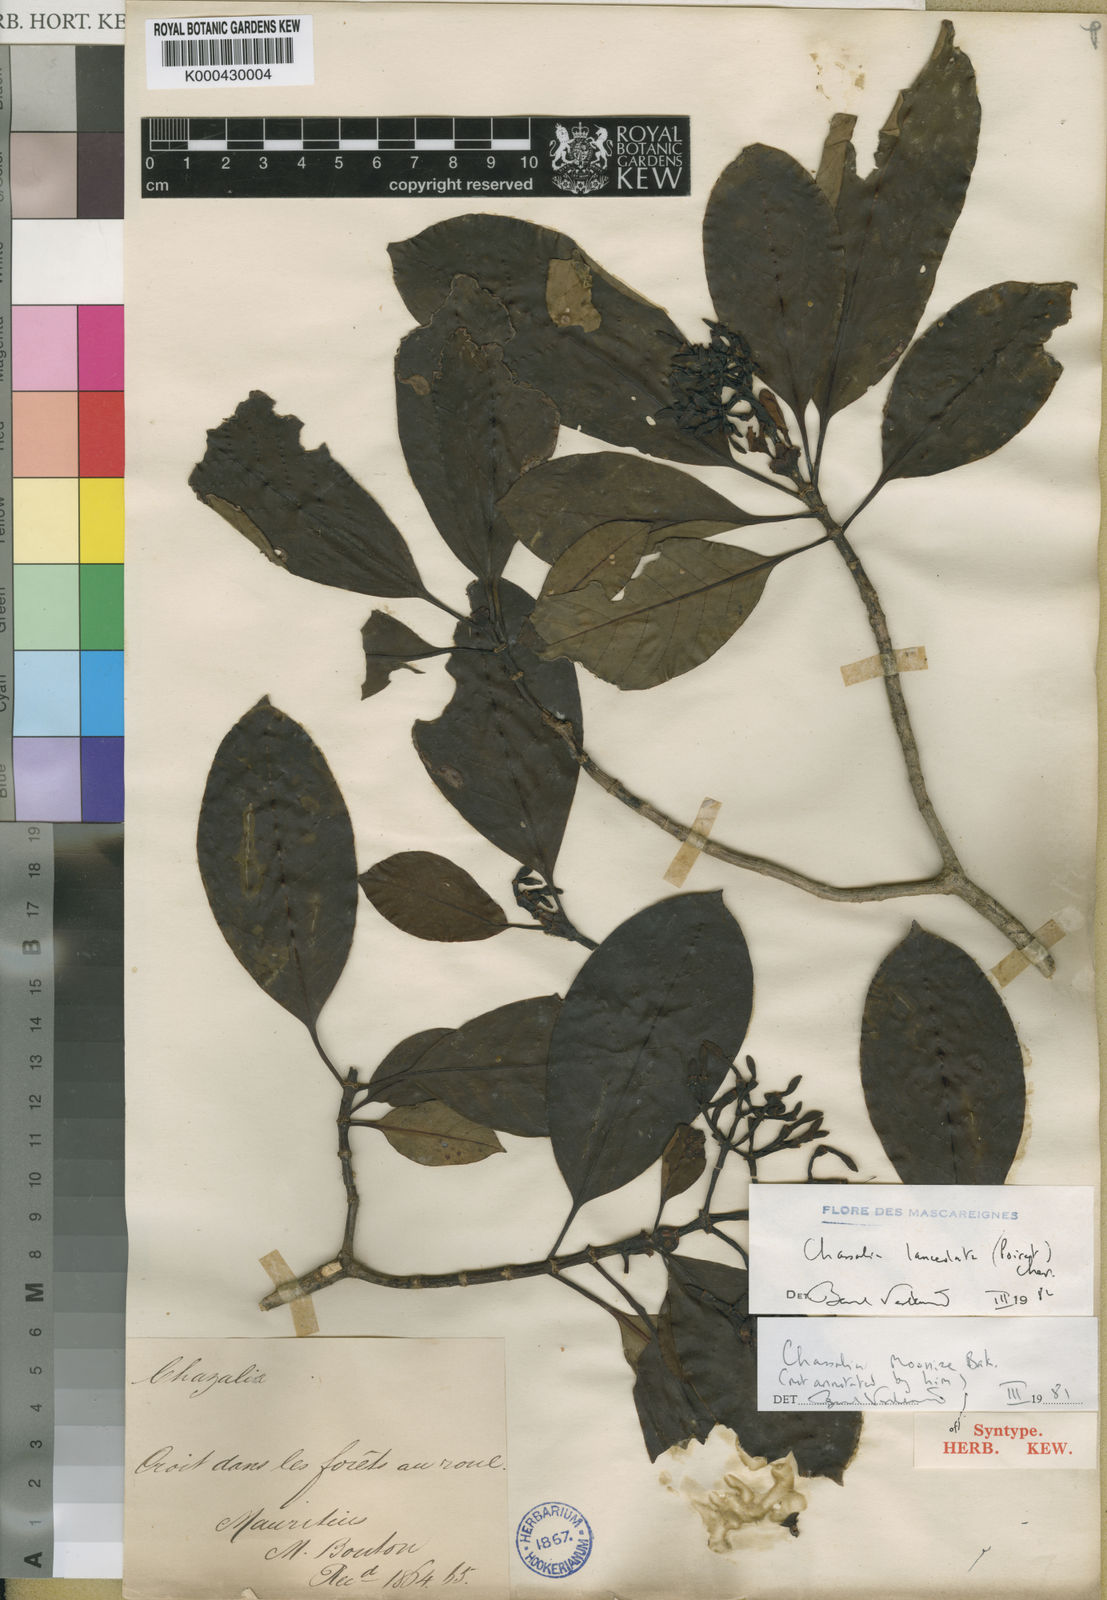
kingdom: Plantae
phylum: Tracheophyta
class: Magnoliopsida
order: Gentianales
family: Rubiaceae
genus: Chassalia
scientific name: Chassalia lanceolata
